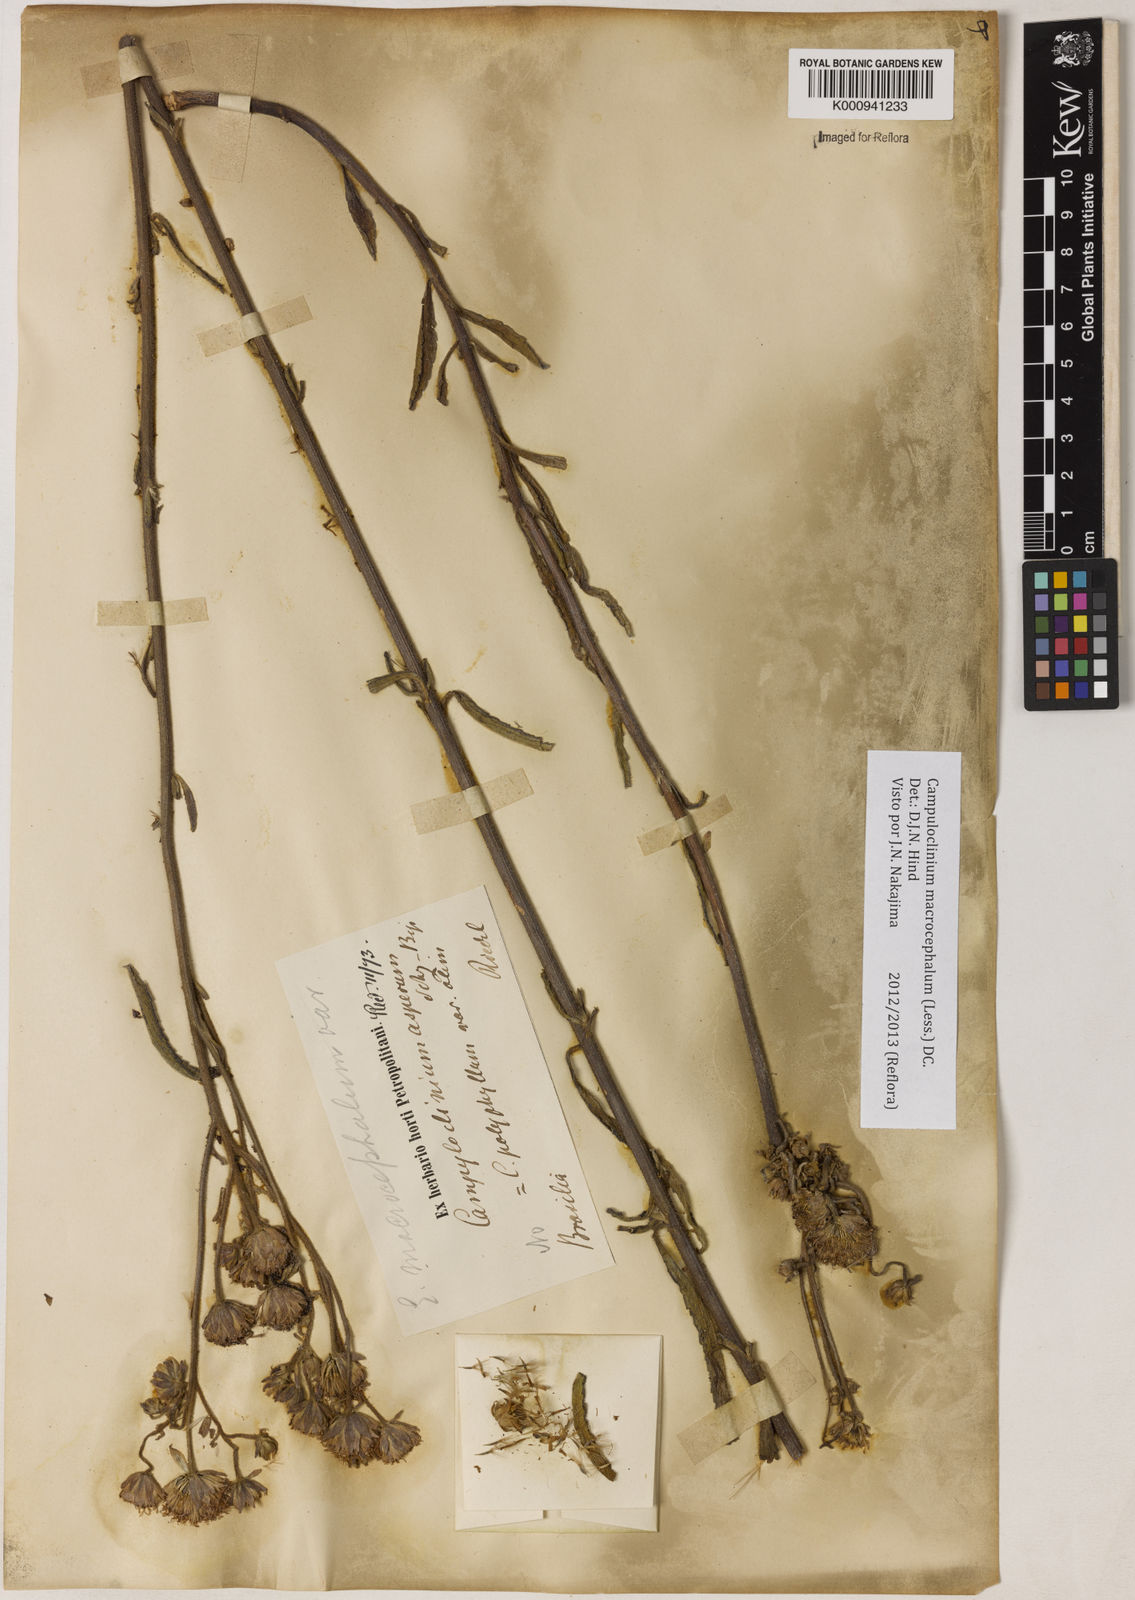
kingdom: Plantae
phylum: Tracheophyta
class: Magnoliopsida
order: Asterales
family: Asteraceae
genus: Campuloclinium
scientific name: Campuloclinium macrocephalum
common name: Pompomweed
